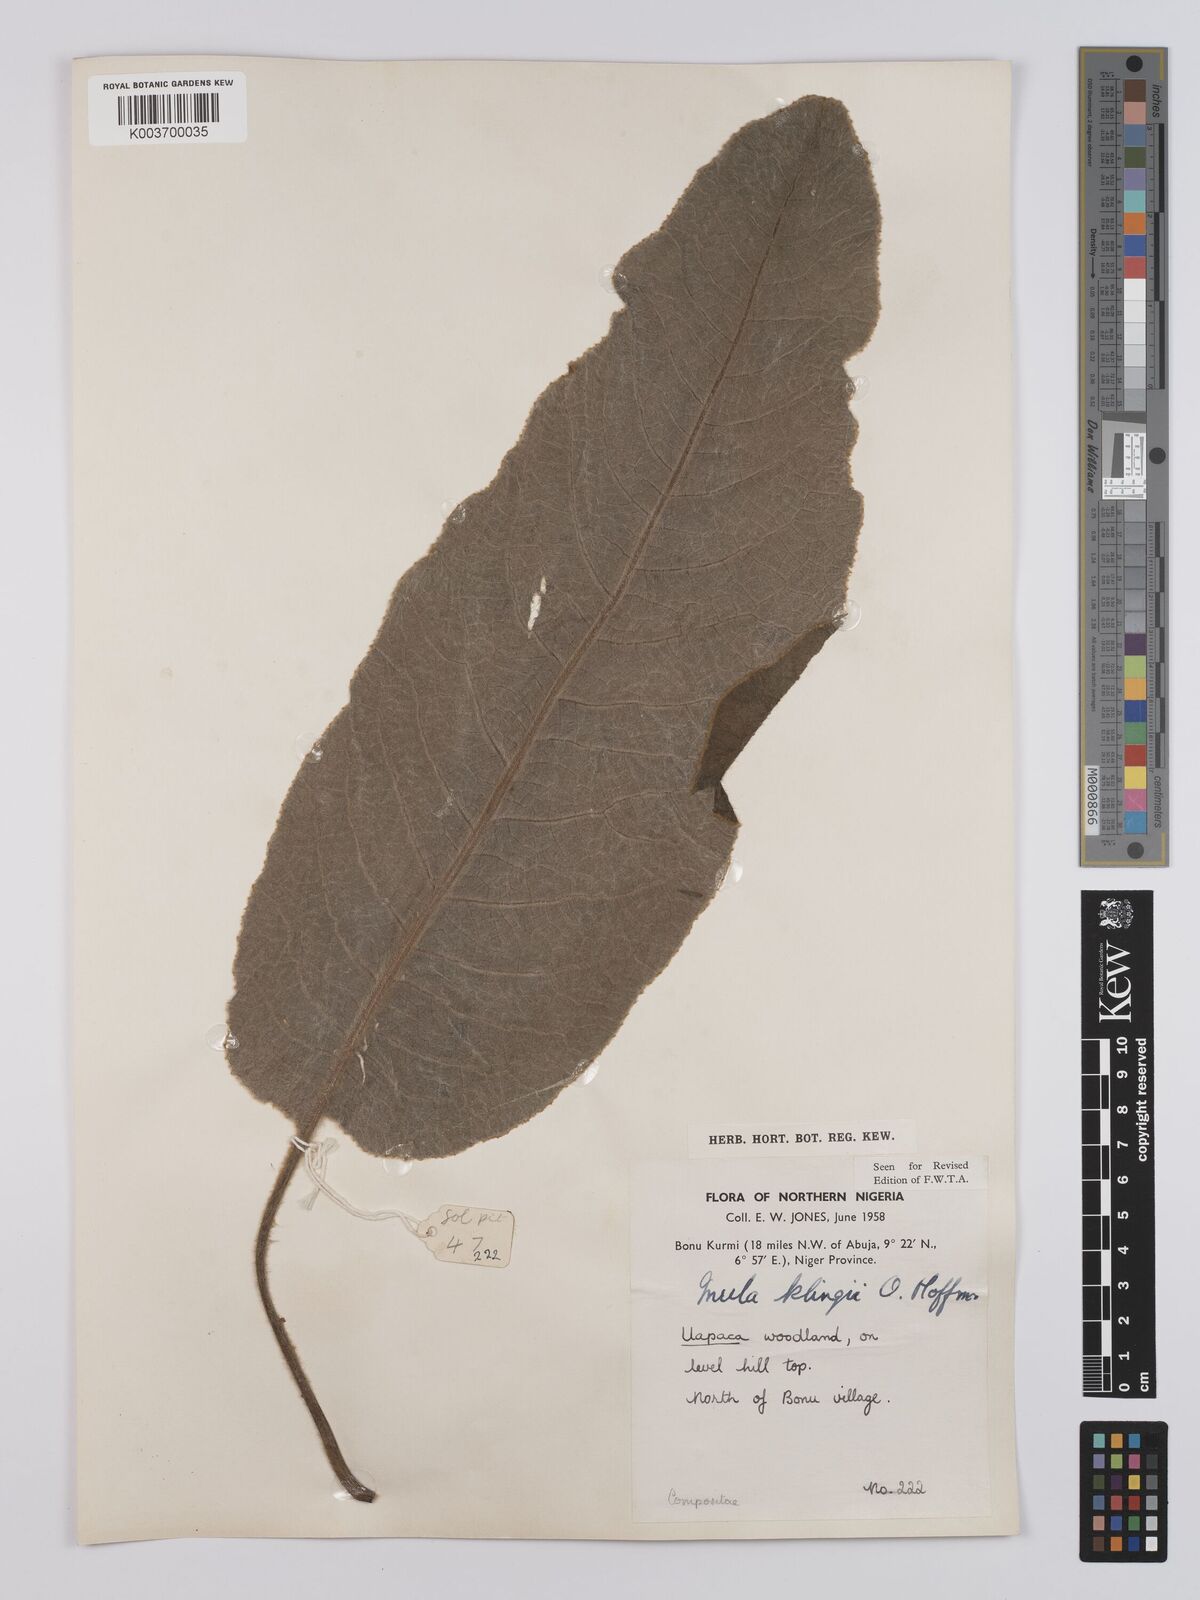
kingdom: Plantae
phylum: Tracheophyta
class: Magnoliopsida
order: Asterales
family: Asteraceae
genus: Inula
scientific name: Inula klingii
